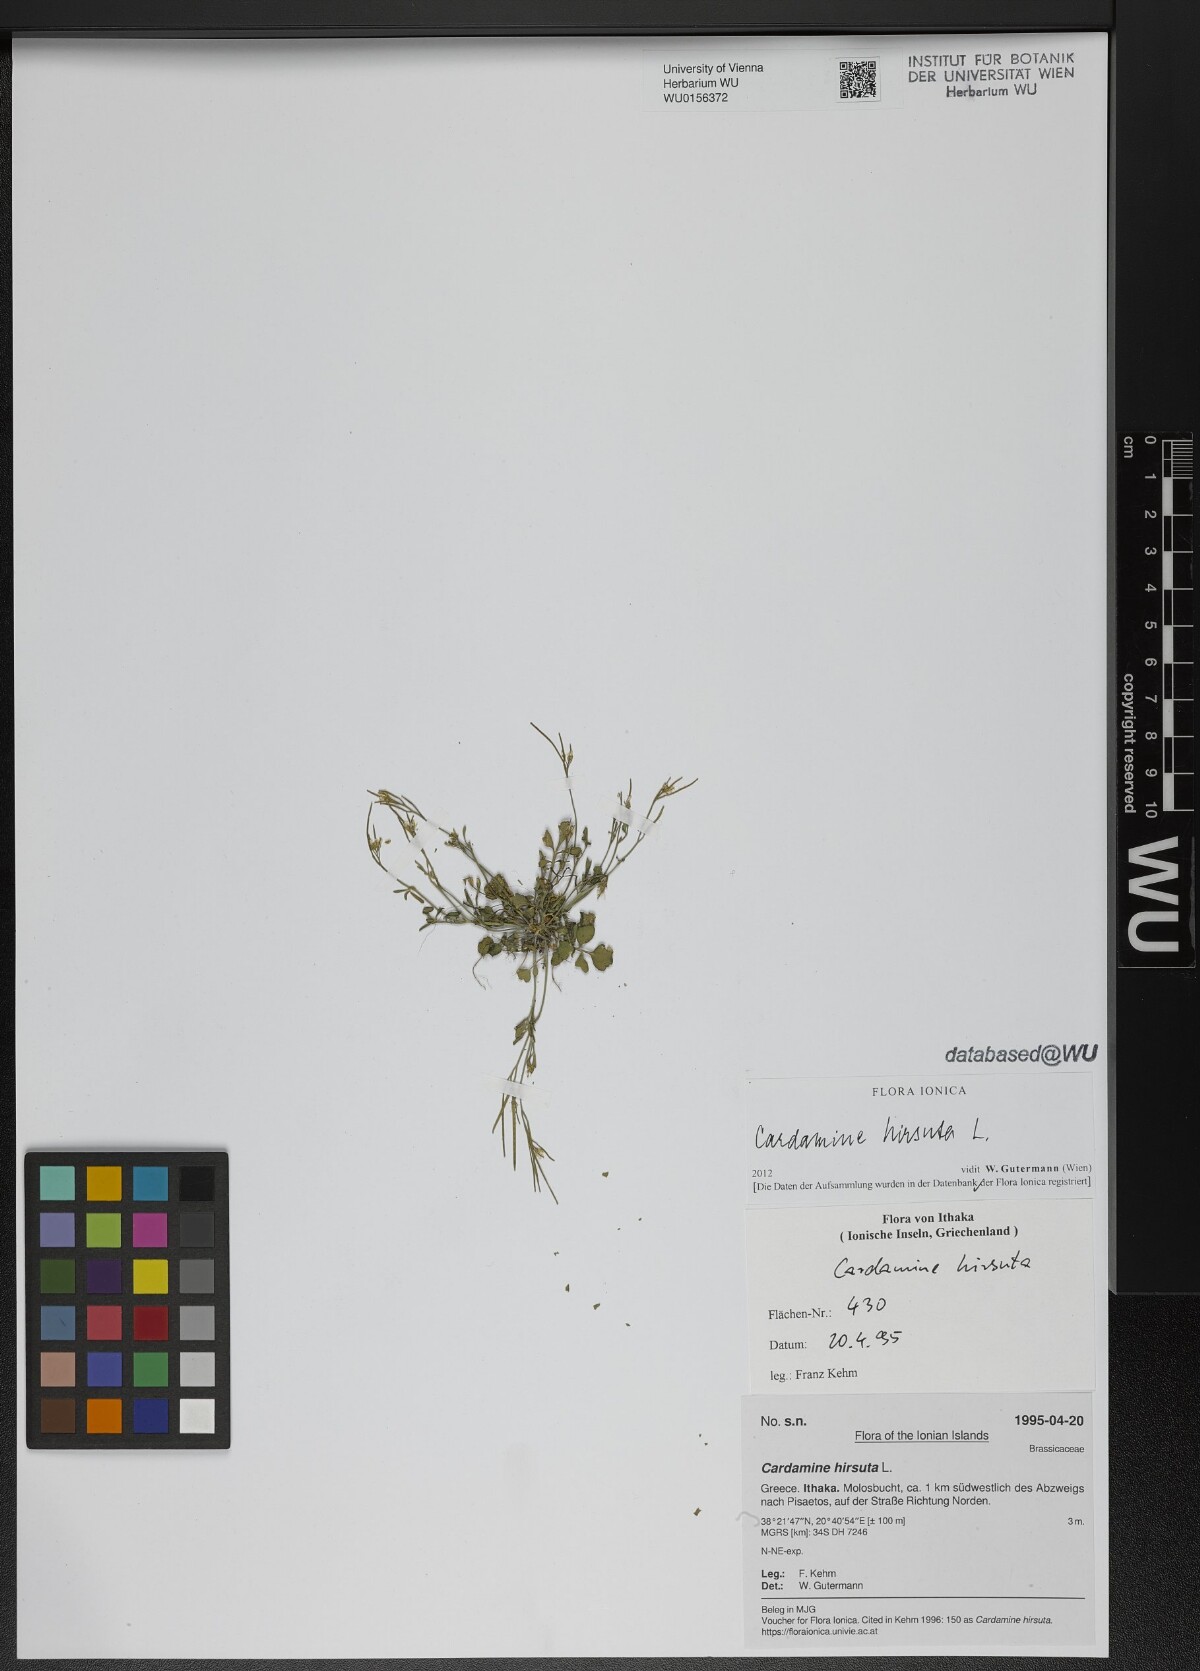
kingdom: Plantae
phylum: Tracheophyta
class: Magnoliopsida
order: Brassicales
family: Brassicaceae
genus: Cardamine
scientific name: Cardamine hirsuta
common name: Hairy bittercress
